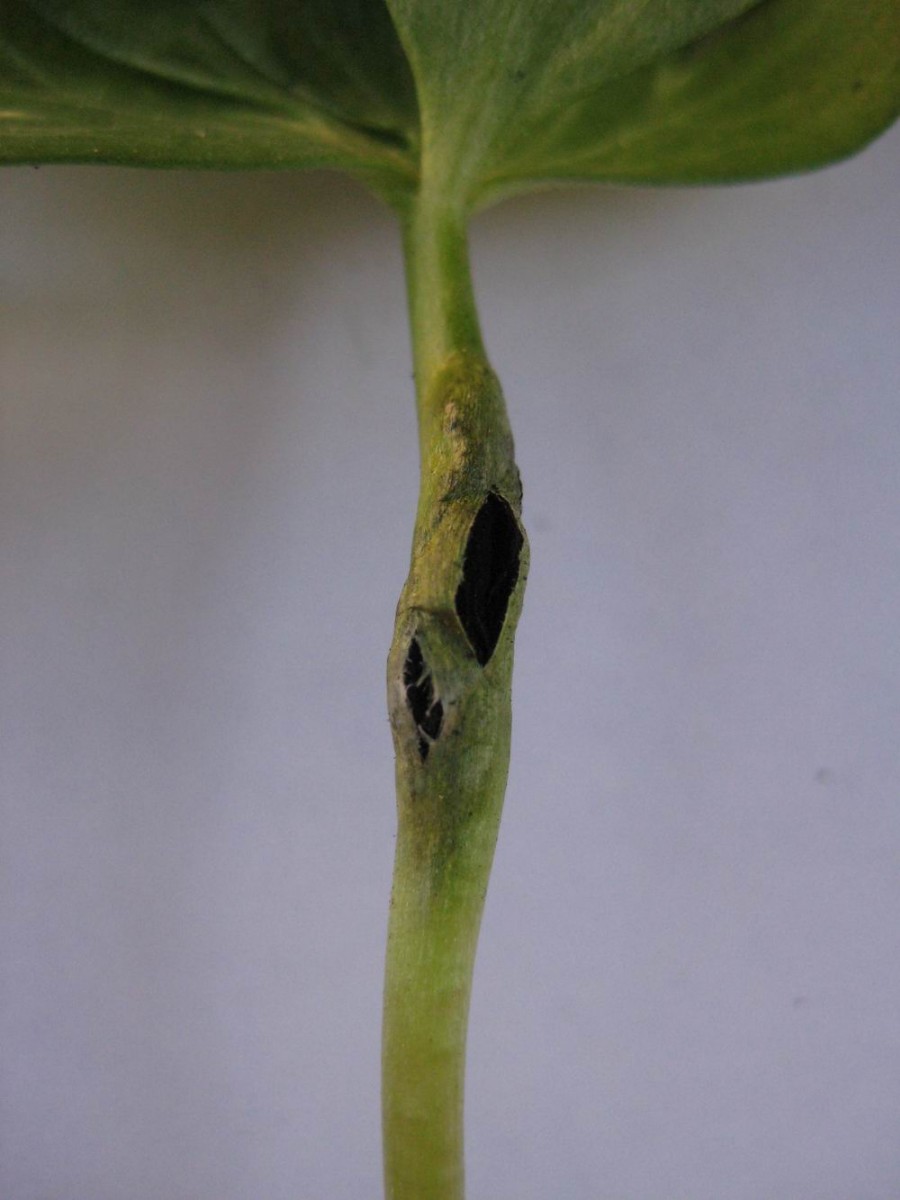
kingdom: Fungi
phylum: Basidiomycota
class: Ustilaginomycetes
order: Urocystidales
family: Urocystidaceae
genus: Urocystis
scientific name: Urocystis eranthidis
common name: erantis-brand
